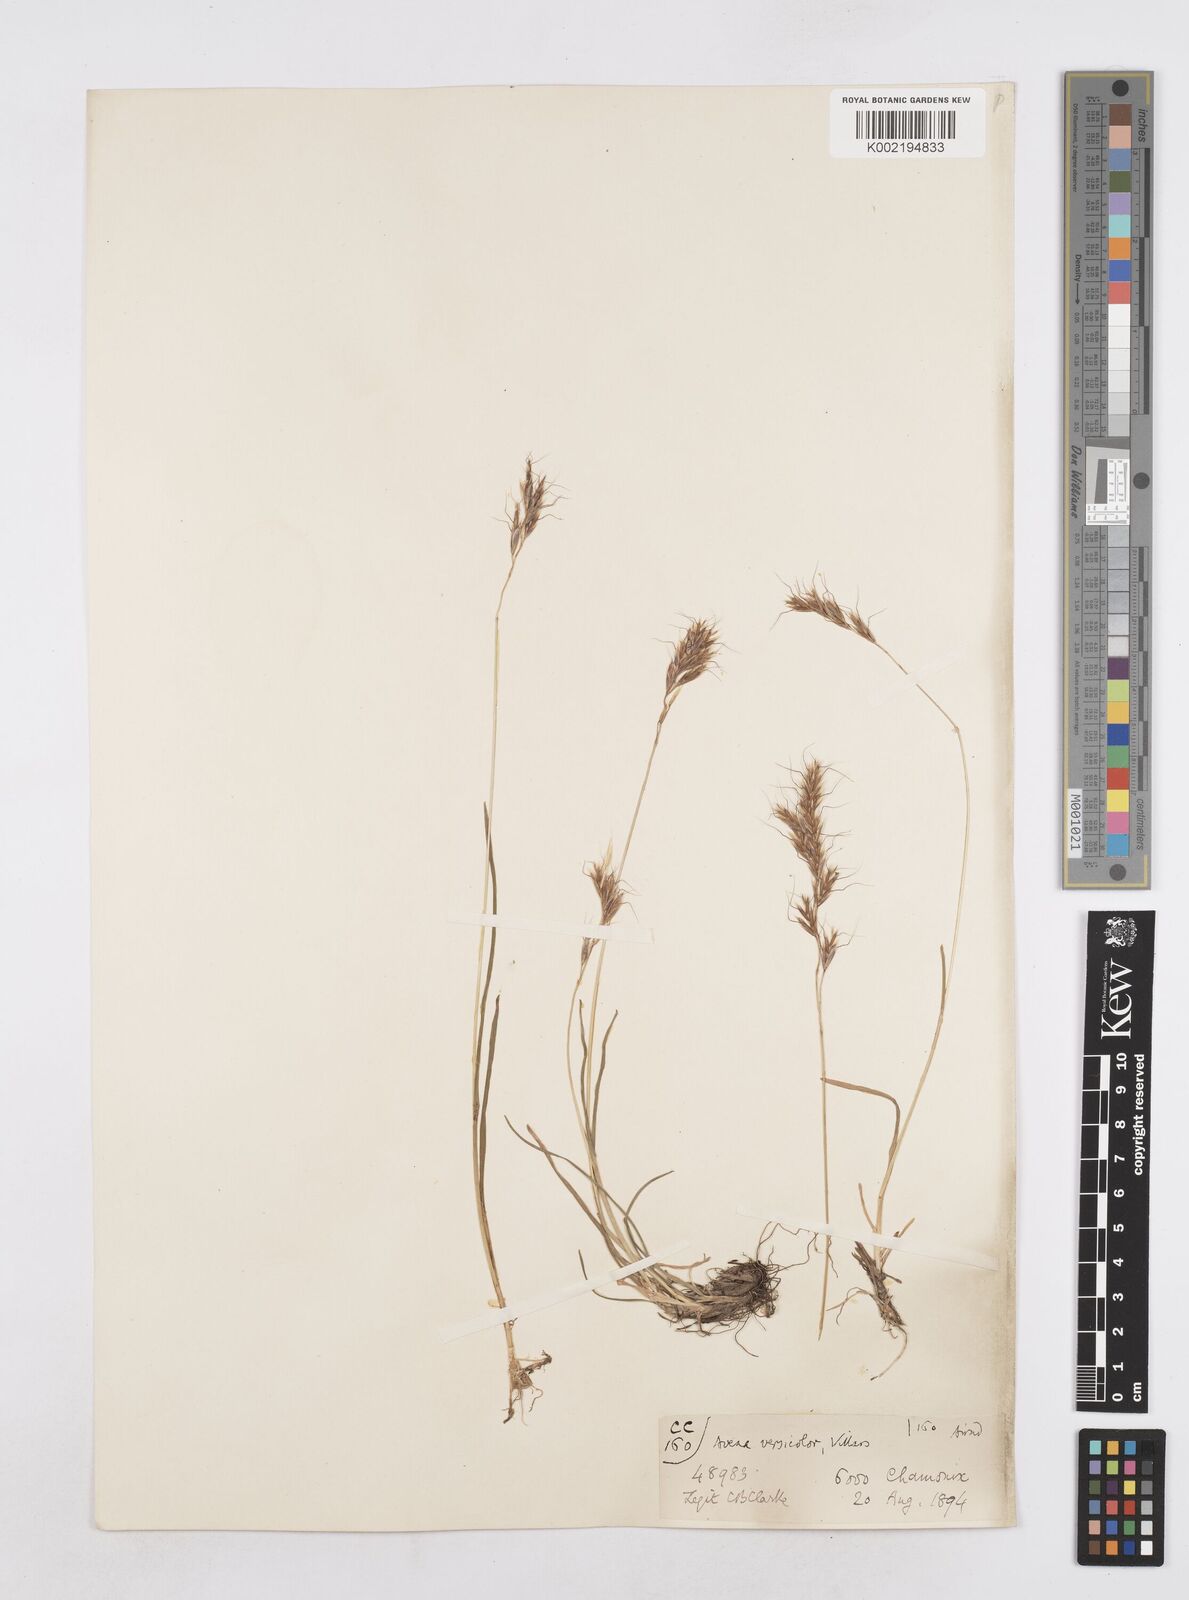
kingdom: Plantae
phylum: Tracheophyta
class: Liliopsida
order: Poales
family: Poaceae
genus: Helictotrichon
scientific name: Helictotrichon
